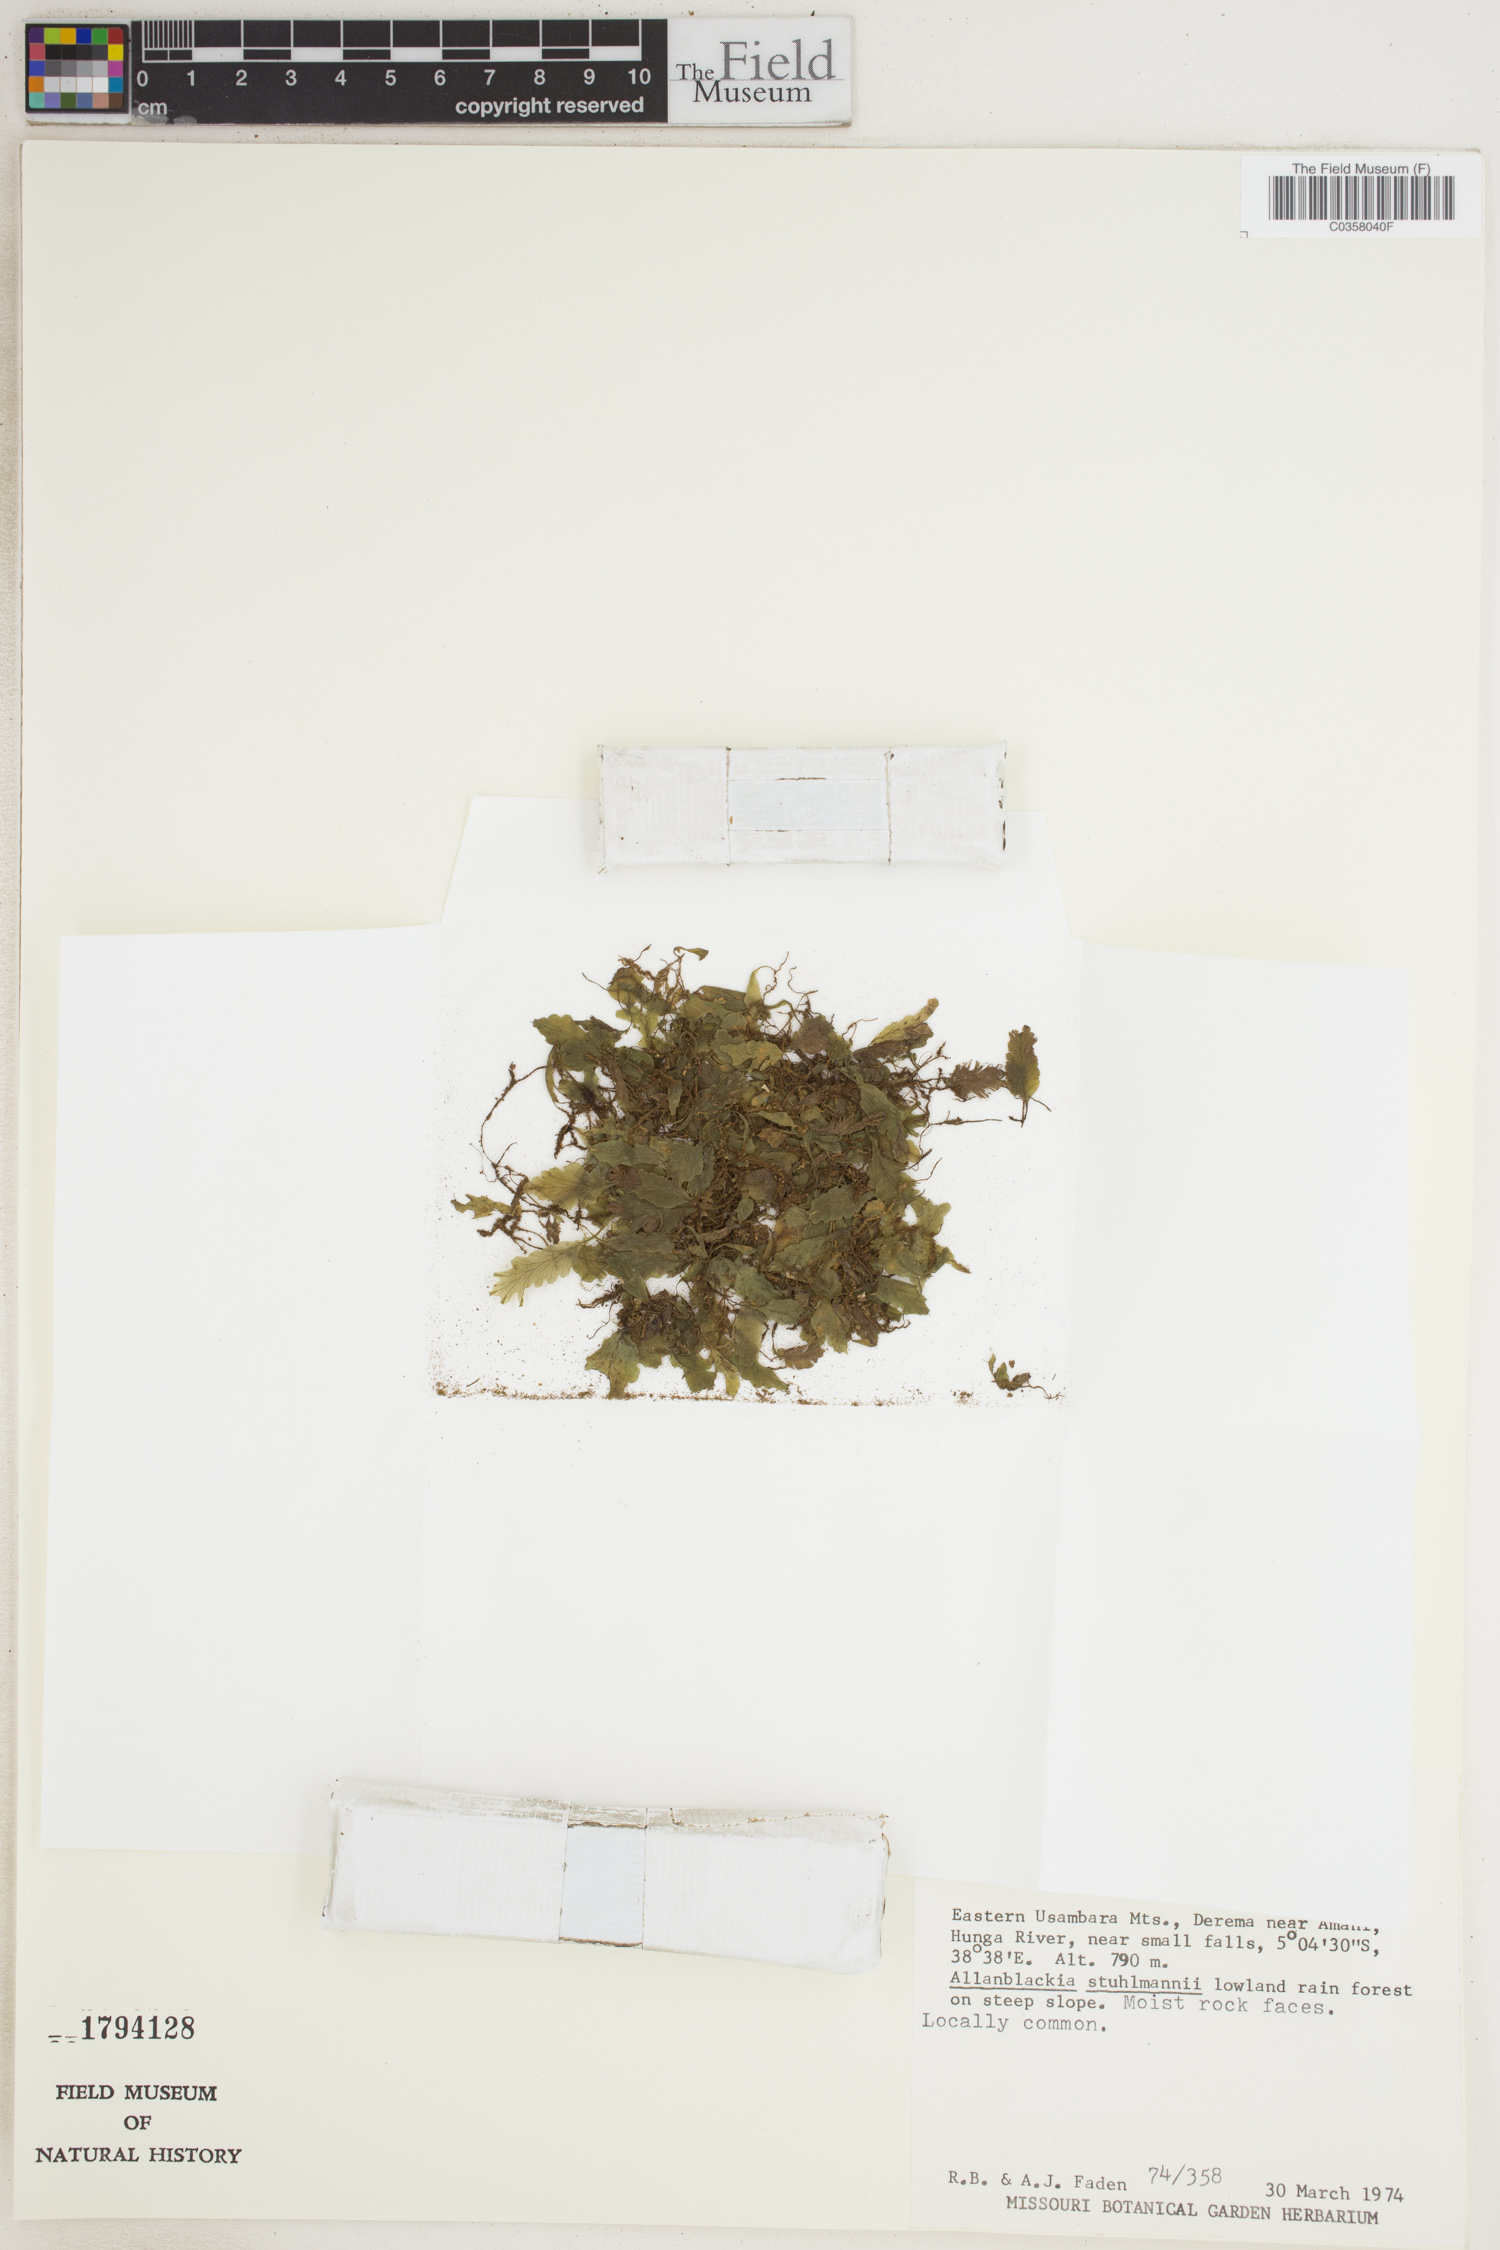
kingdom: Plantae
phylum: Tracheophyta
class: Polypodiopsida
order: Hymenophyllales
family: Hymenophyllaceae
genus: Didymoglossum
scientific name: Didymoglossum erosum
